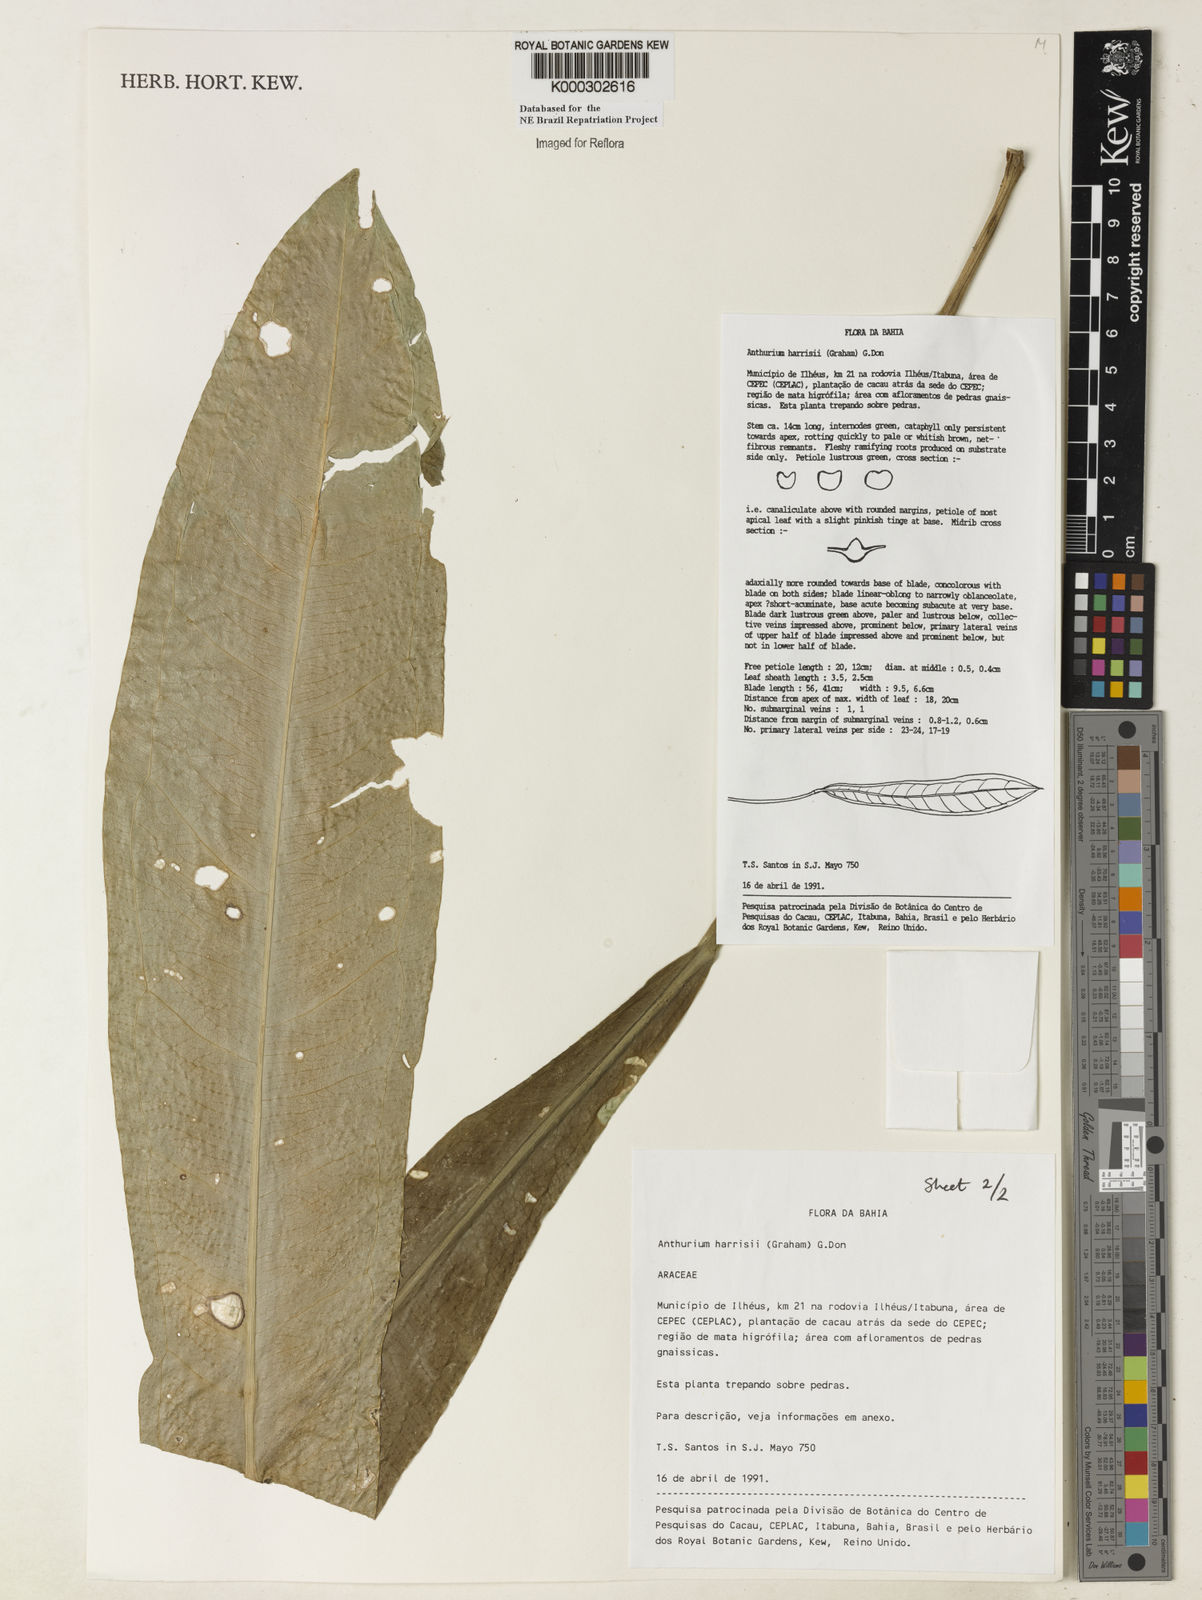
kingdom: Plantae
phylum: Tracheophyta
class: Liliopsida
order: Alismatales
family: Araceae
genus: Anthurium
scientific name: Anthurium harrisii
